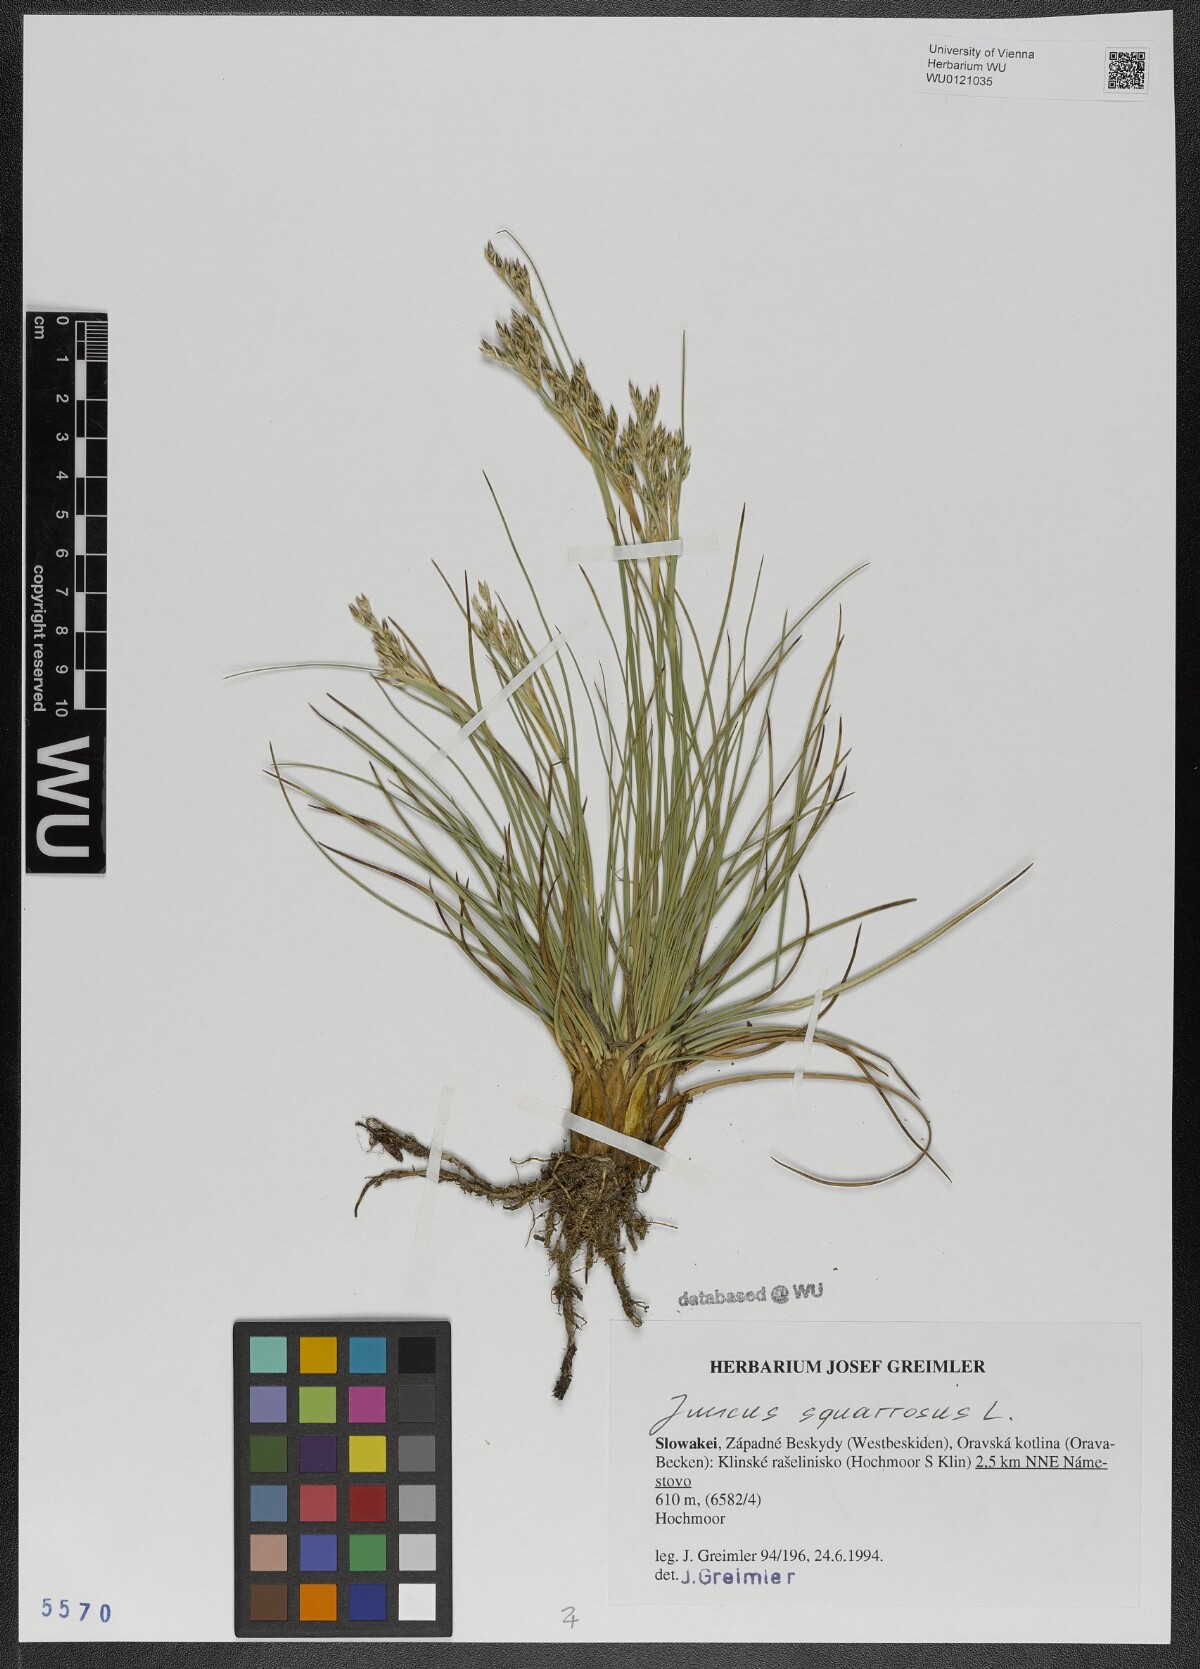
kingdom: Plantae
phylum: Tracheophyta
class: Liliopsida
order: Poales
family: Juncaceae
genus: Juncus
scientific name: Juncus squarrosus
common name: Heath rush
